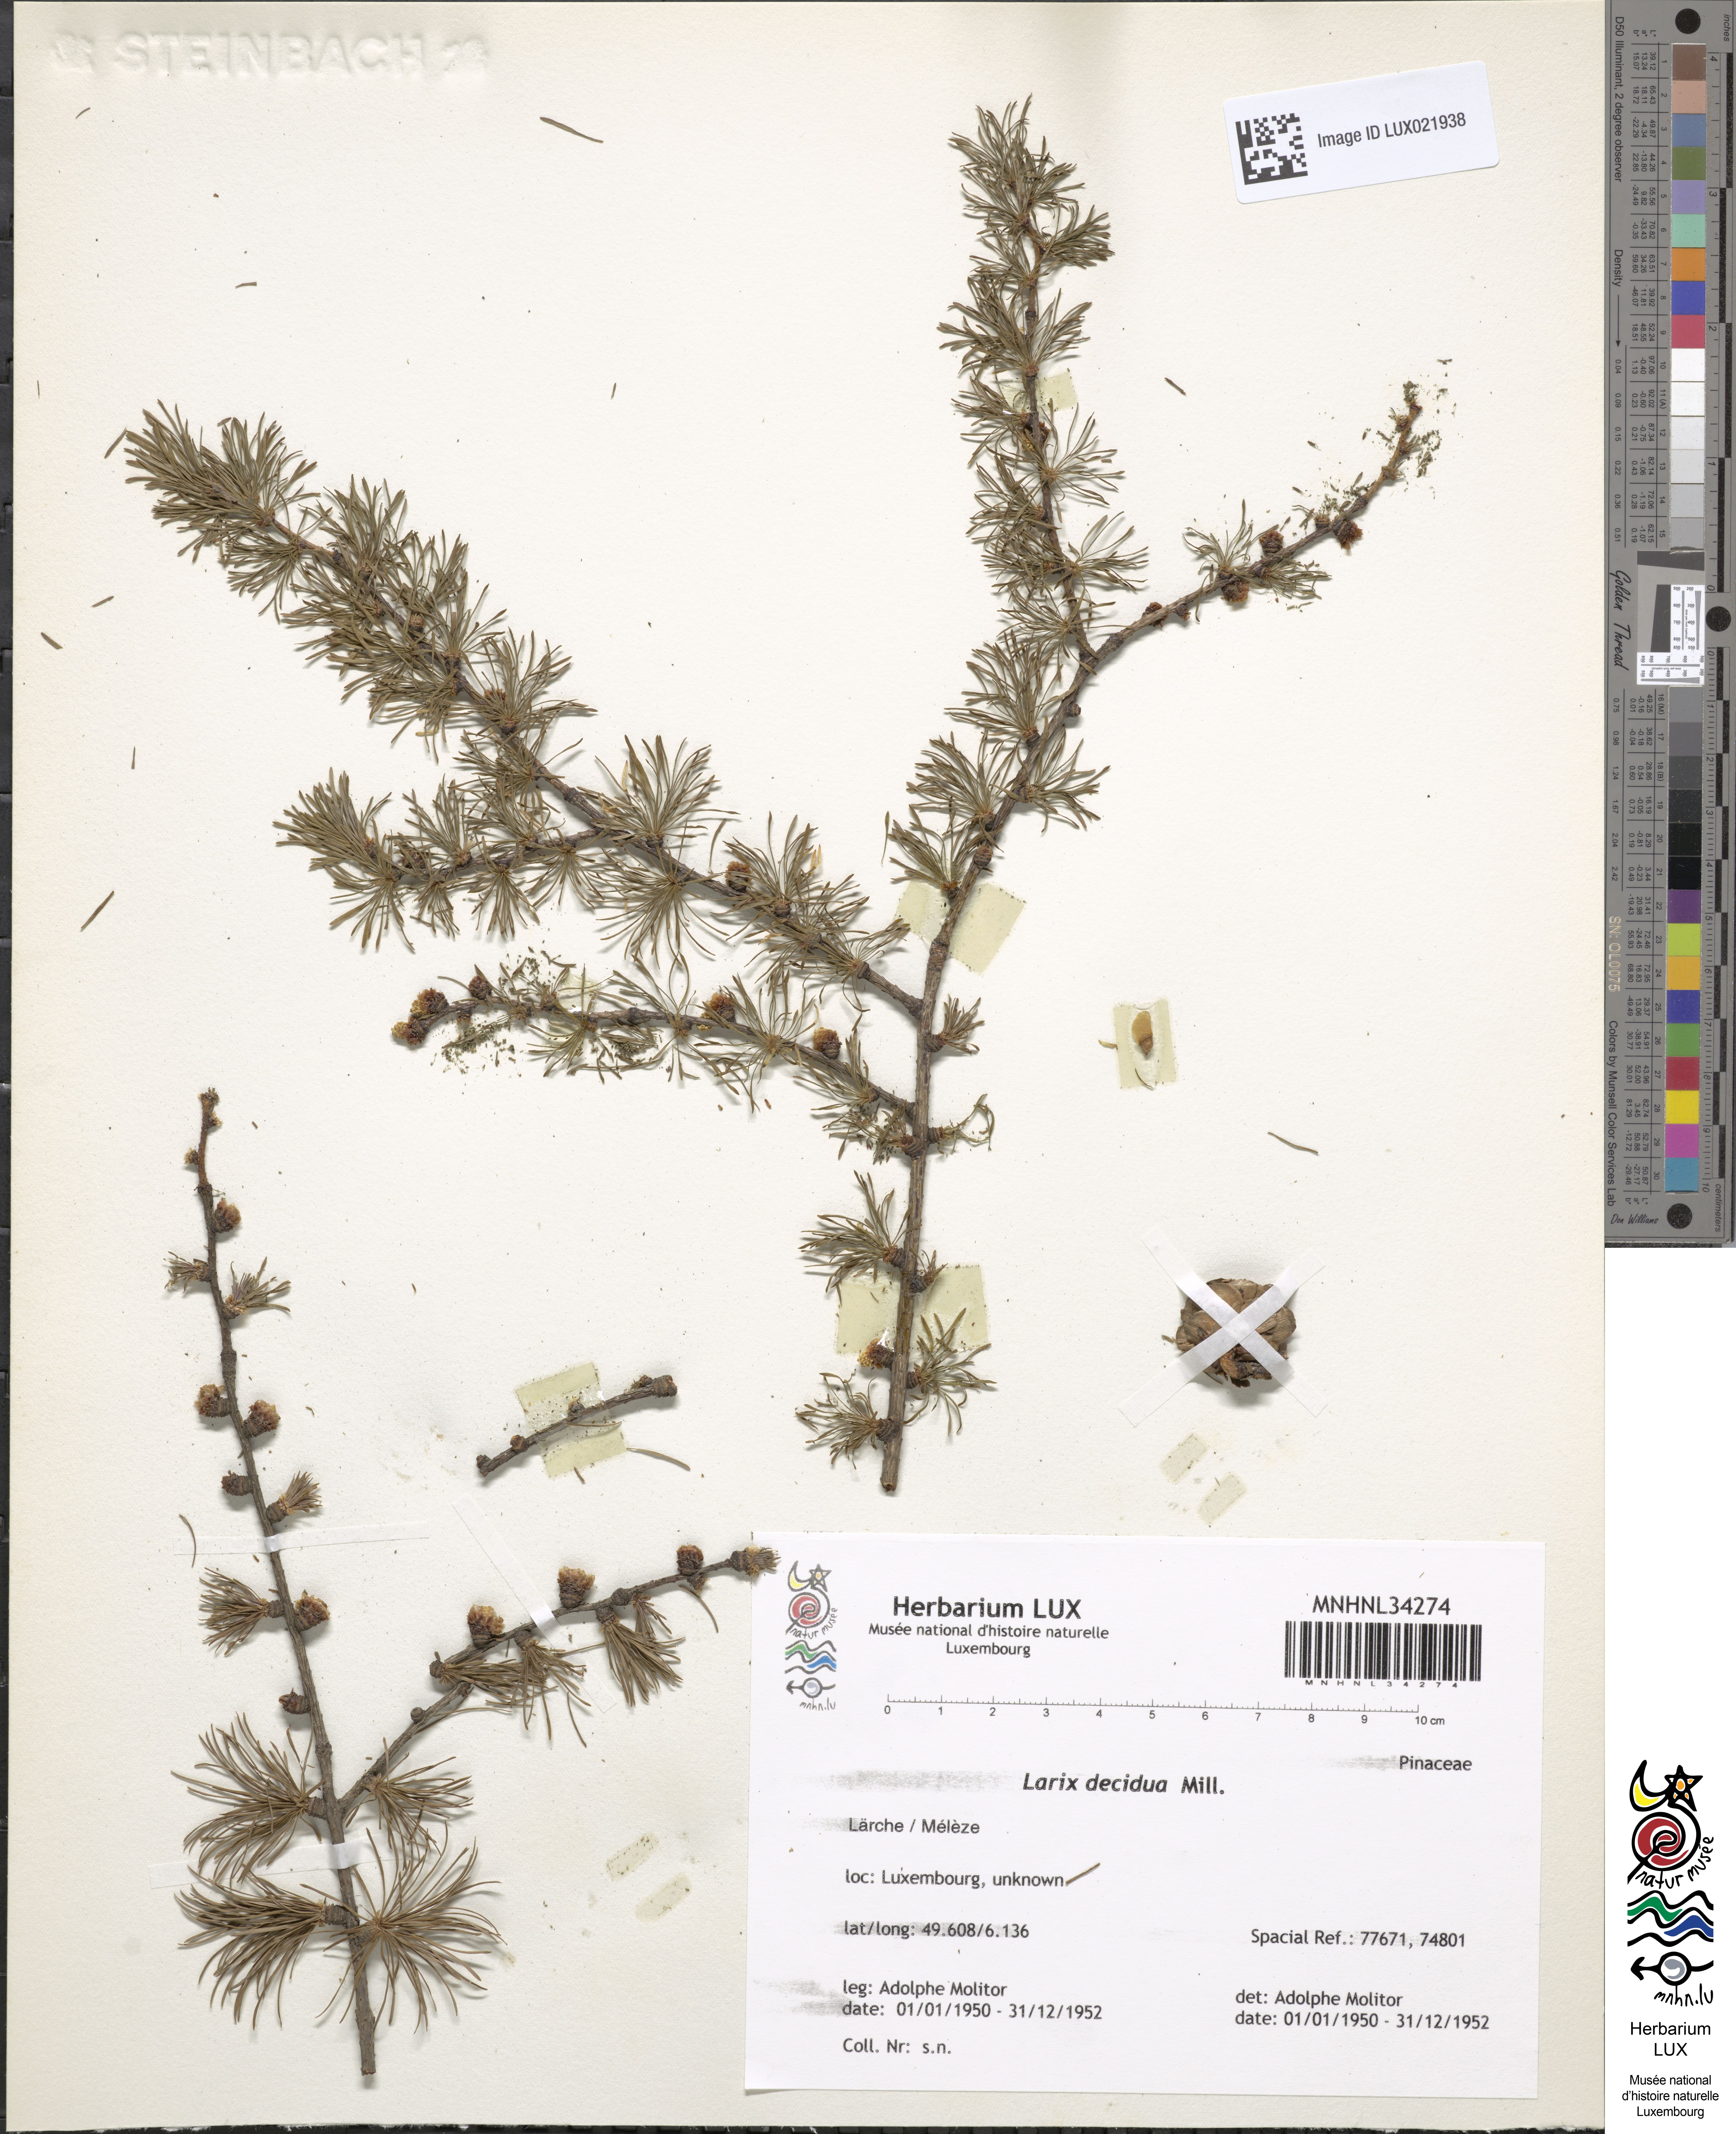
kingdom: Plantae
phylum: Tracheophyta
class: Pinopsida
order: Pinales
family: Pinaceae
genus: Larix
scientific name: Larix decidua
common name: European larch
